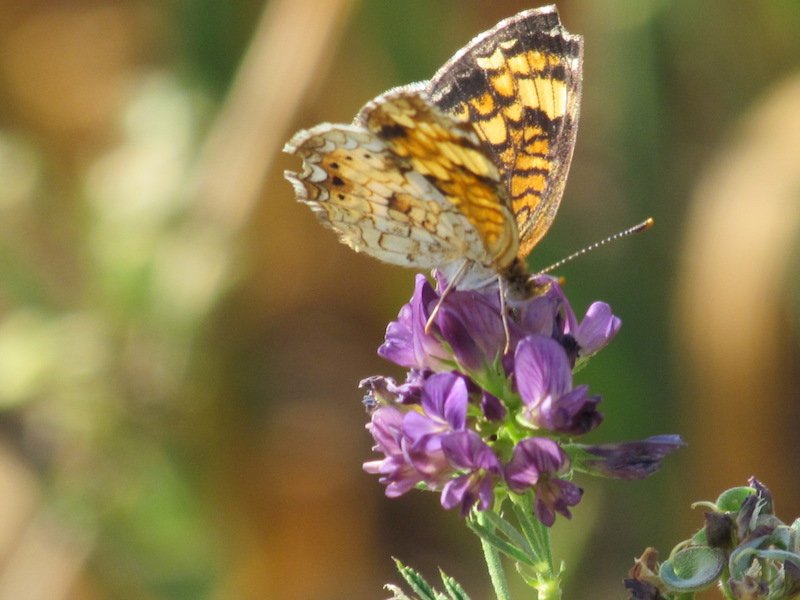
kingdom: Animalia
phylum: Arthropoda
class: Insecta
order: Lepidoptera
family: Nymphalidae
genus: Phyciodes
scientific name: Phyciodes tharos
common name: Northern Crescent
